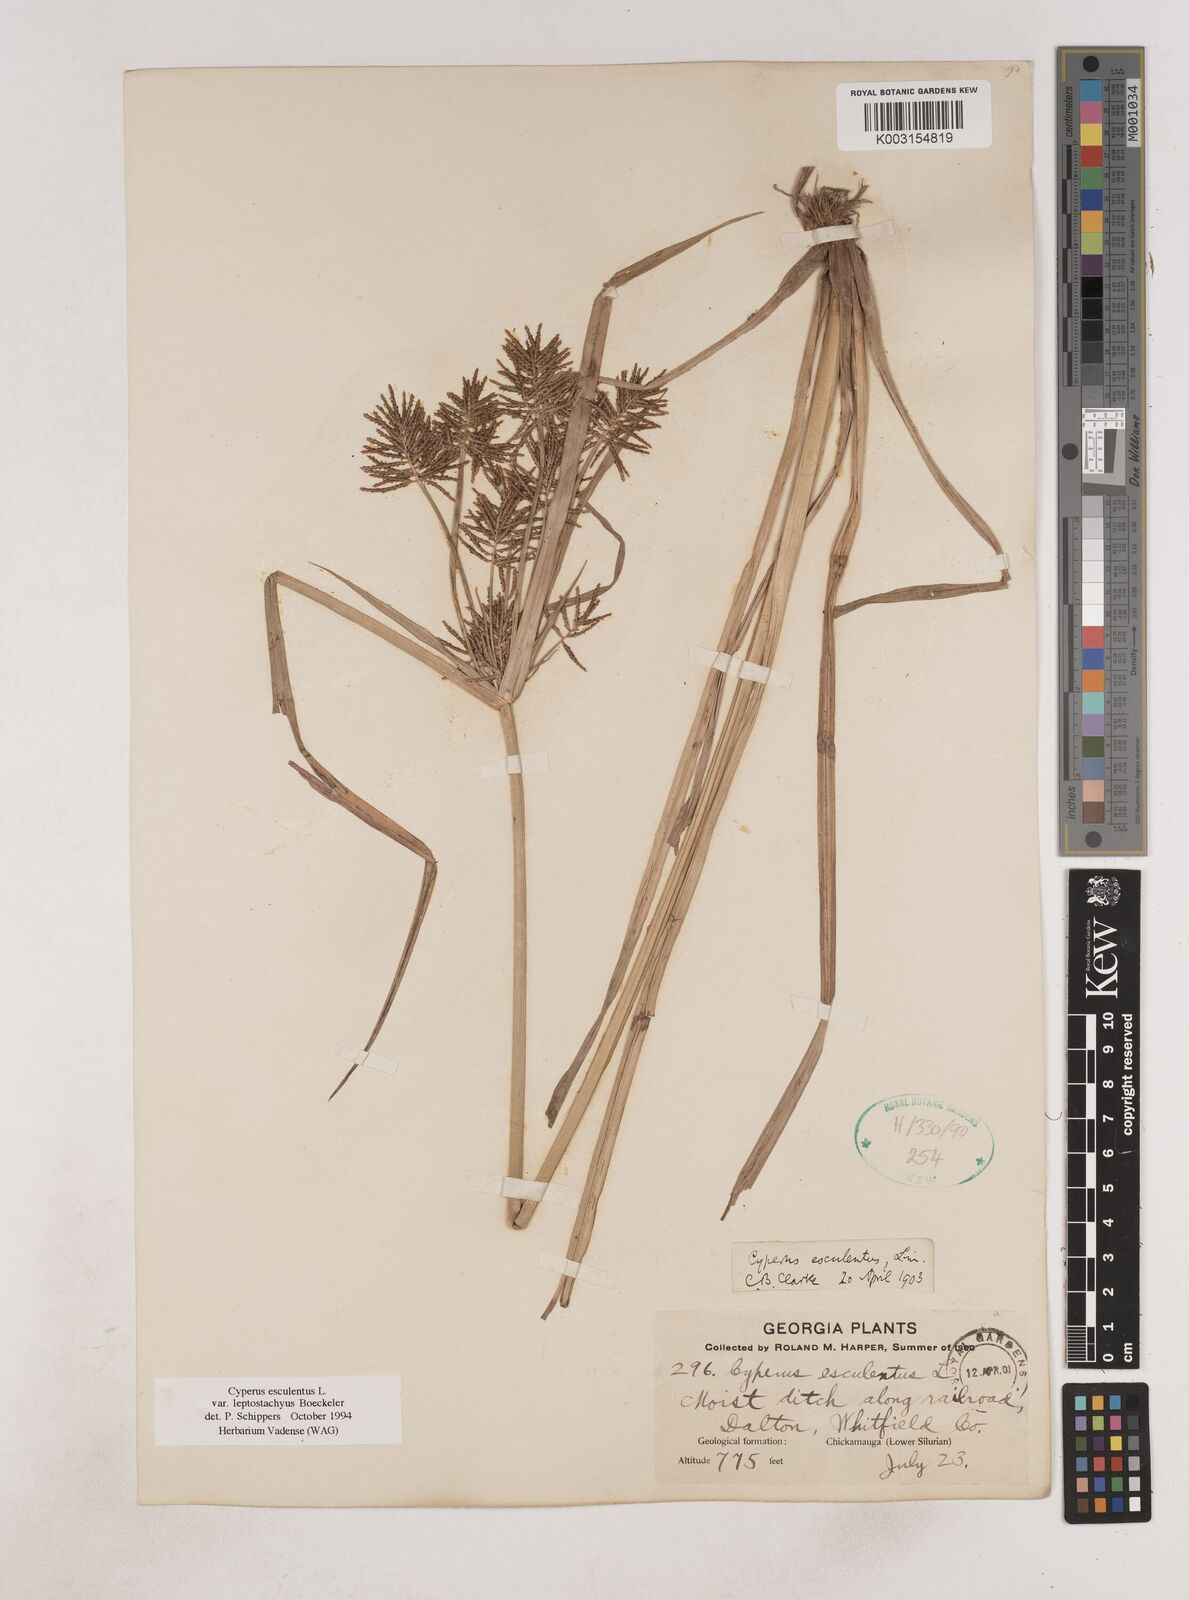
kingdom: Plantae
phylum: Tracheophyta
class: Liliopsida
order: Poales
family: Cyperaceae
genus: Cyperus
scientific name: Cyperus esculentus
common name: Yellow nutsedge
